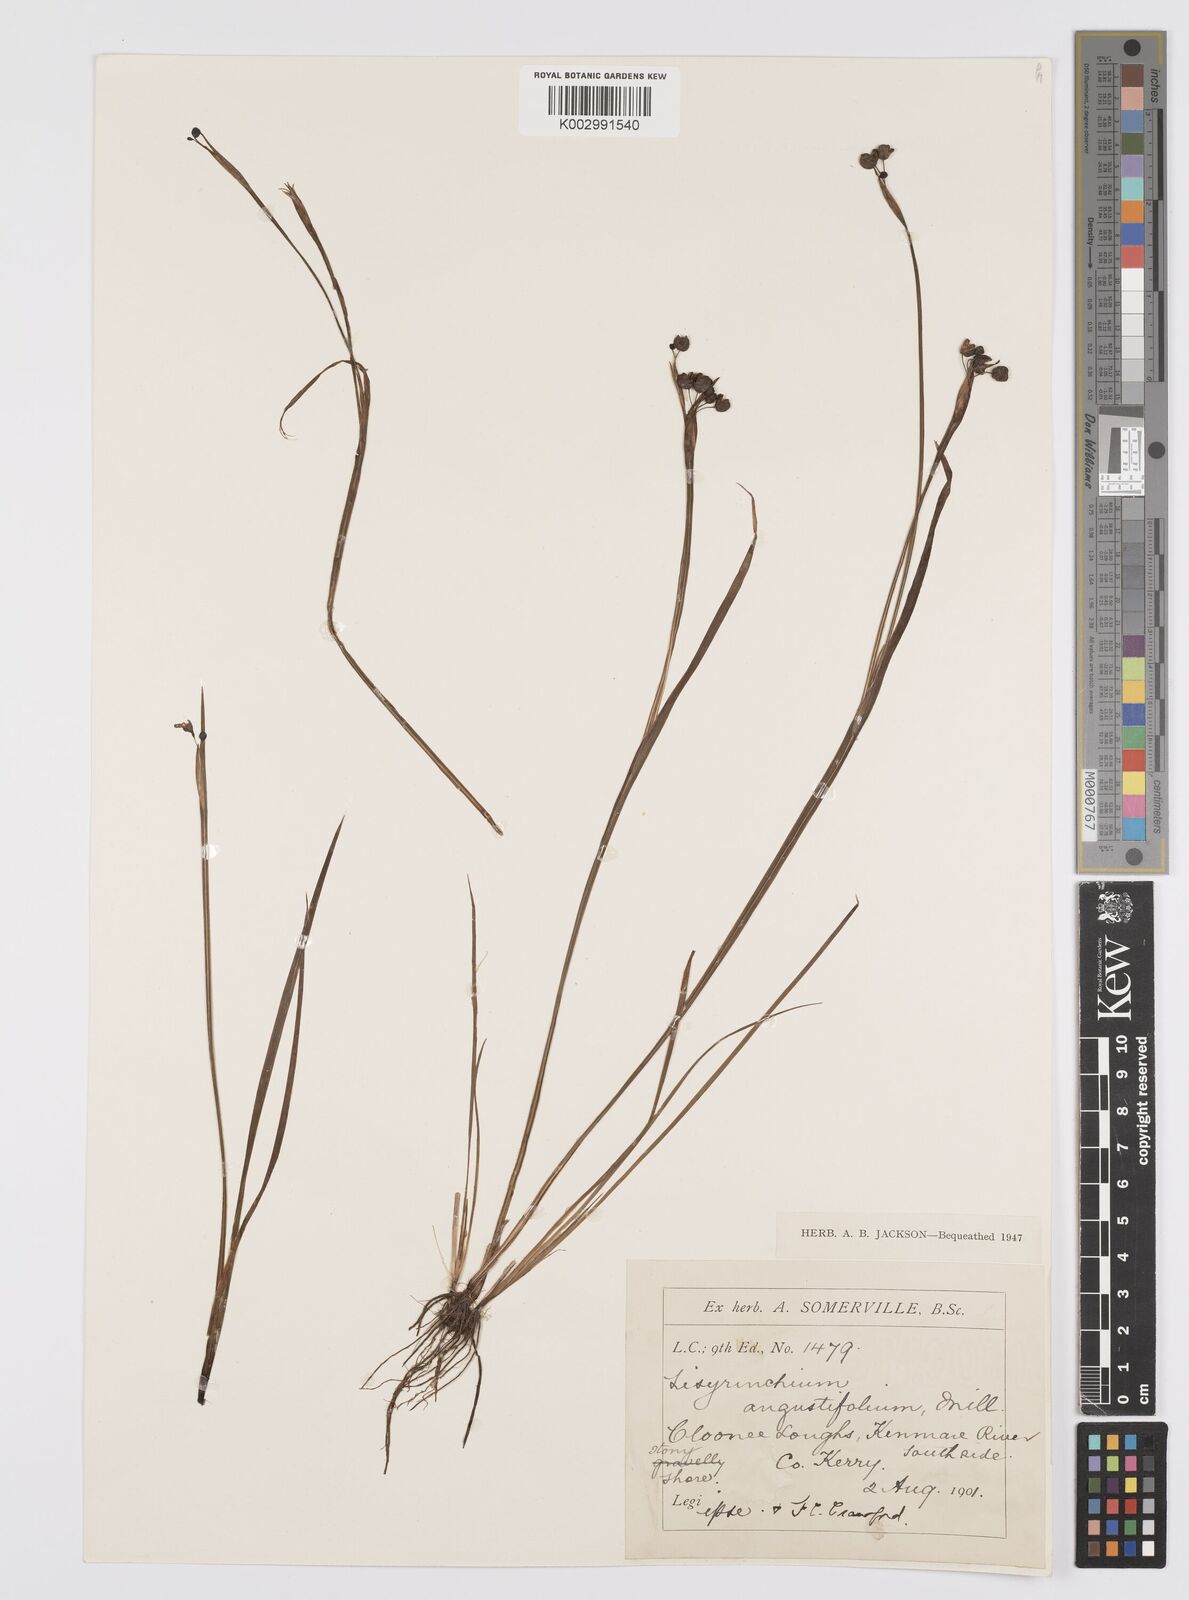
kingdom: Plantae
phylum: Tracheophyta
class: Liliopsida
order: Asparagales
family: Iridaceae
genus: Sisyrinchium
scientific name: Sisyrinchium angustifolium
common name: Narrow-leaf blue-eyed-grass
